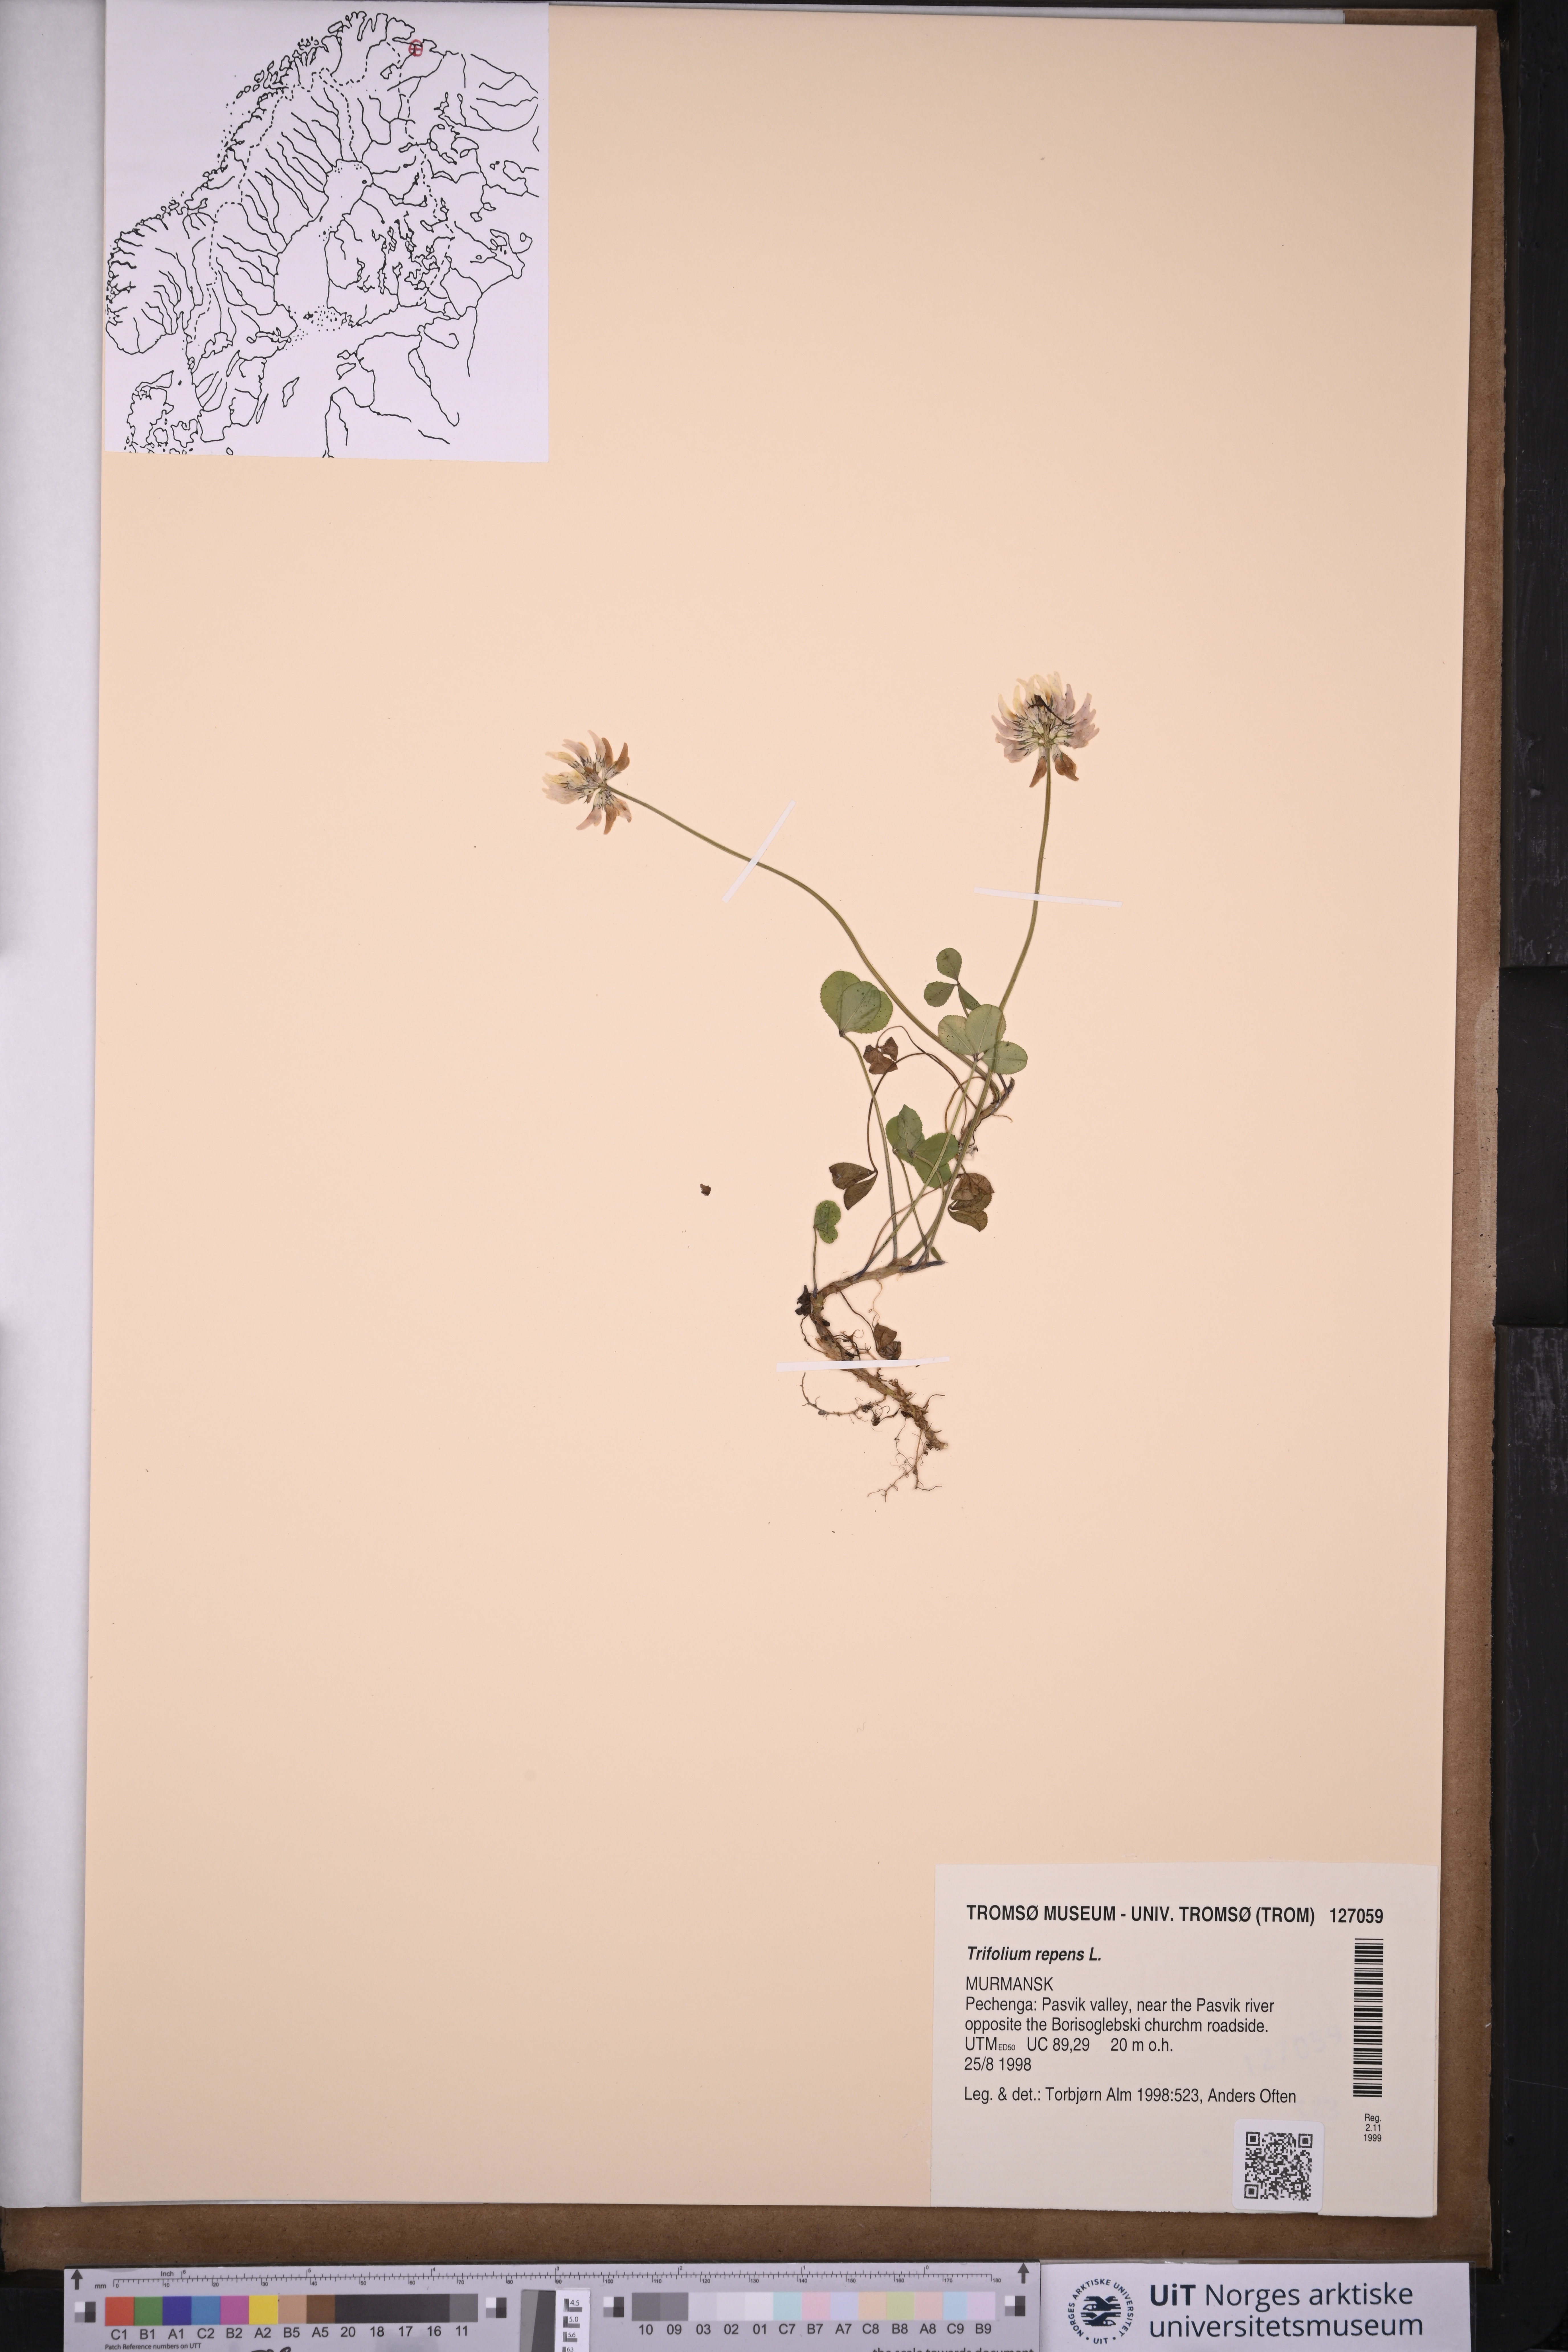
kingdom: Plantae
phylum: Tracheophyta
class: Magnoliopsida
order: Fabales
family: Fabaceae
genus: Trifolium
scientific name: Trifolium repens
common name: White clover
